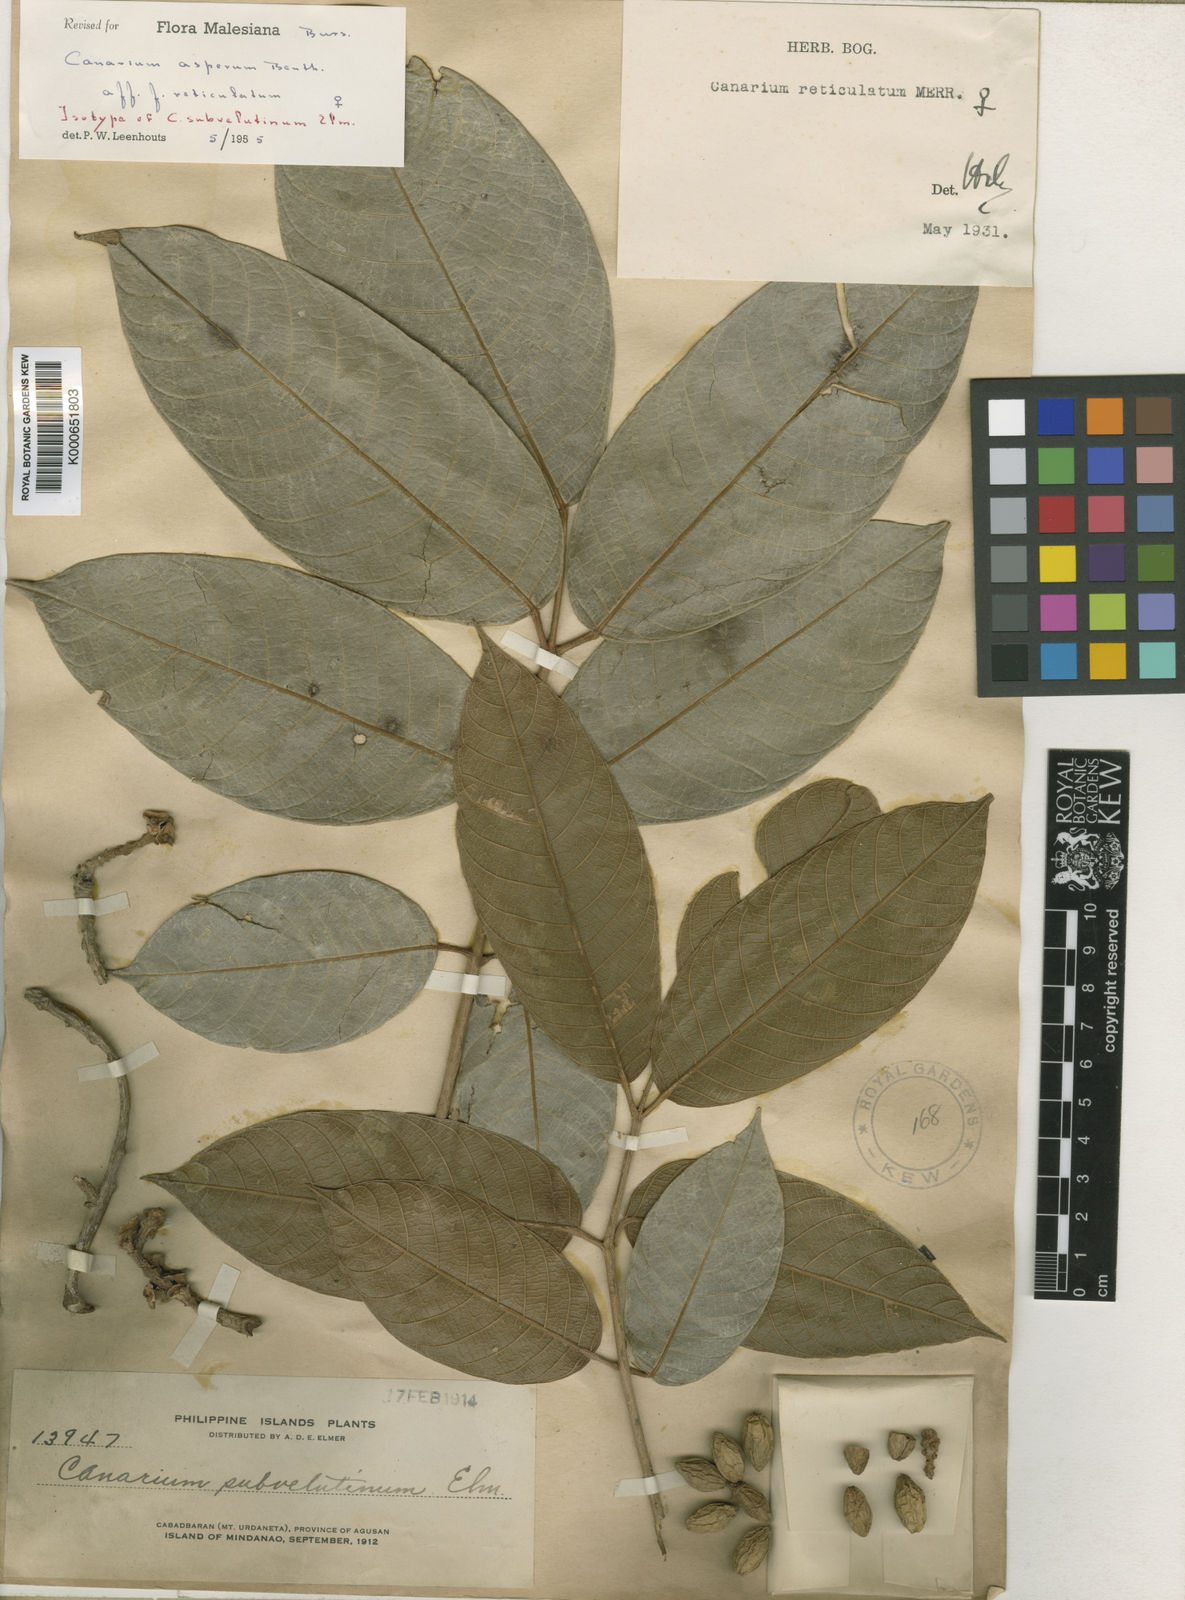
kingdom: Plantae
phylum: Tracheophyta
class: Magnoliopsida
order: Sapindales
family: Burseraceae
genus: Canarium
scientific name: Canarium asperum
